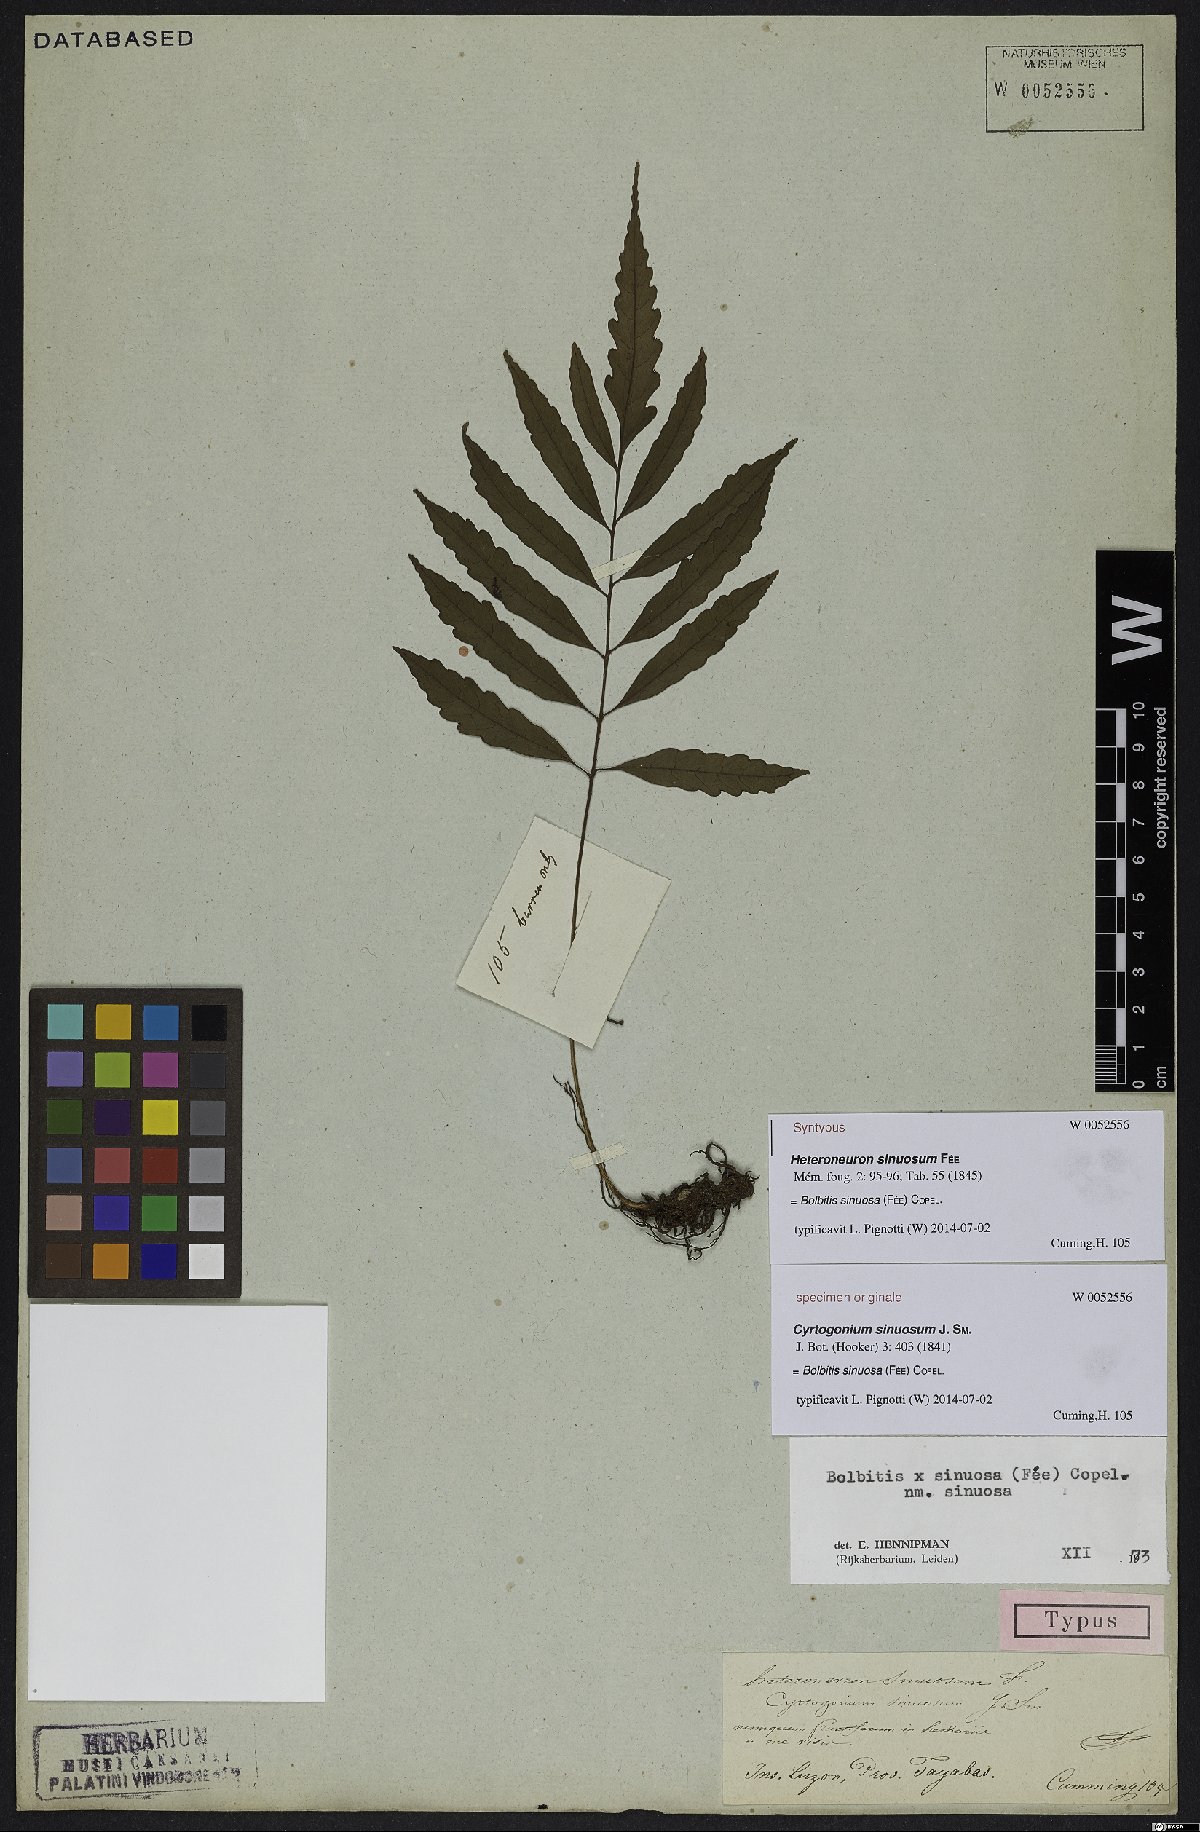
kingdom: Plantae
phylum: Tracheophyta
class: Polypodiopsida
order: Polypodiales
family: Dryopteridaceae
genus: Bolbitis
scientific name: Bolbitis sinuosa
